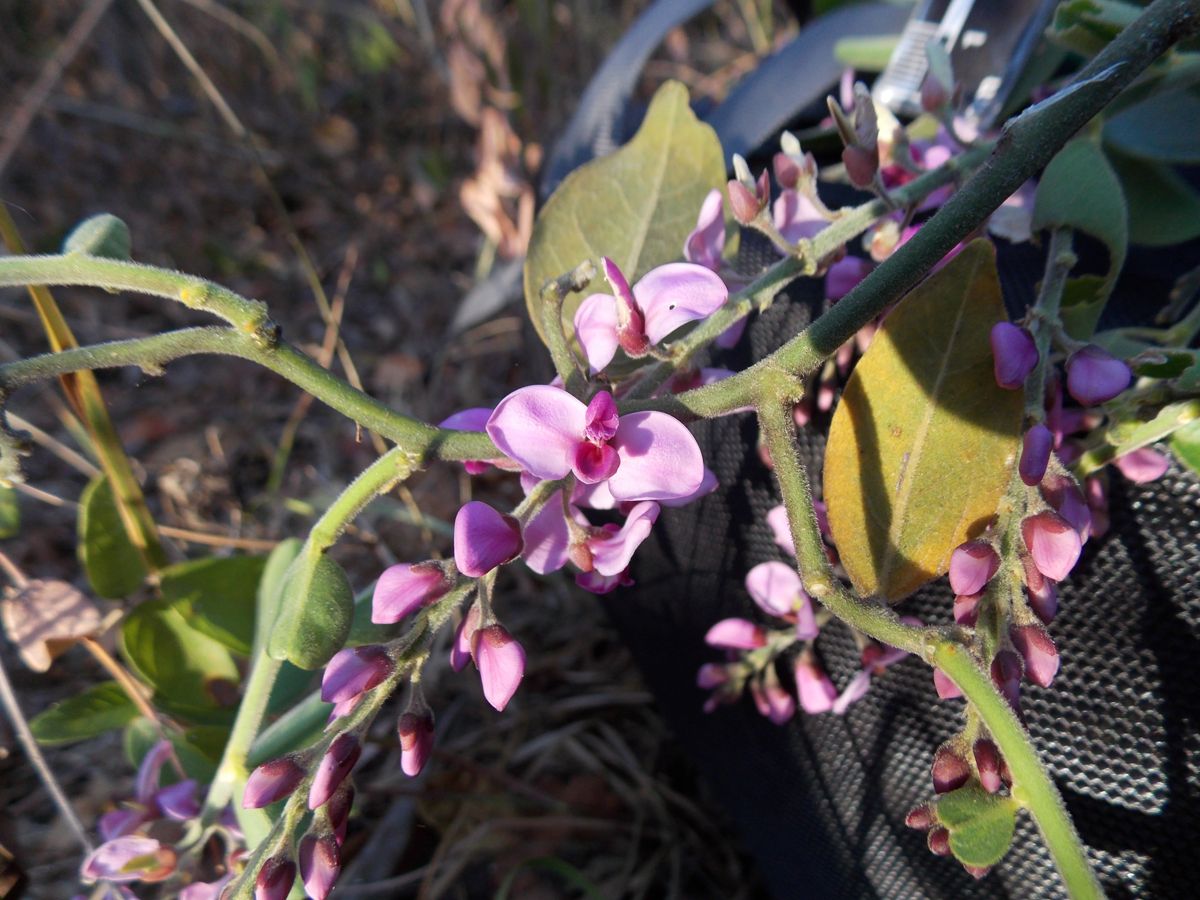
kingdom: Plantae
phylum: Tracheophyta
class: Magnoliopsida
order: Fabales
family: Polygalaceae
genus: Securidaca
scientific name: Securidaca diversifolia
